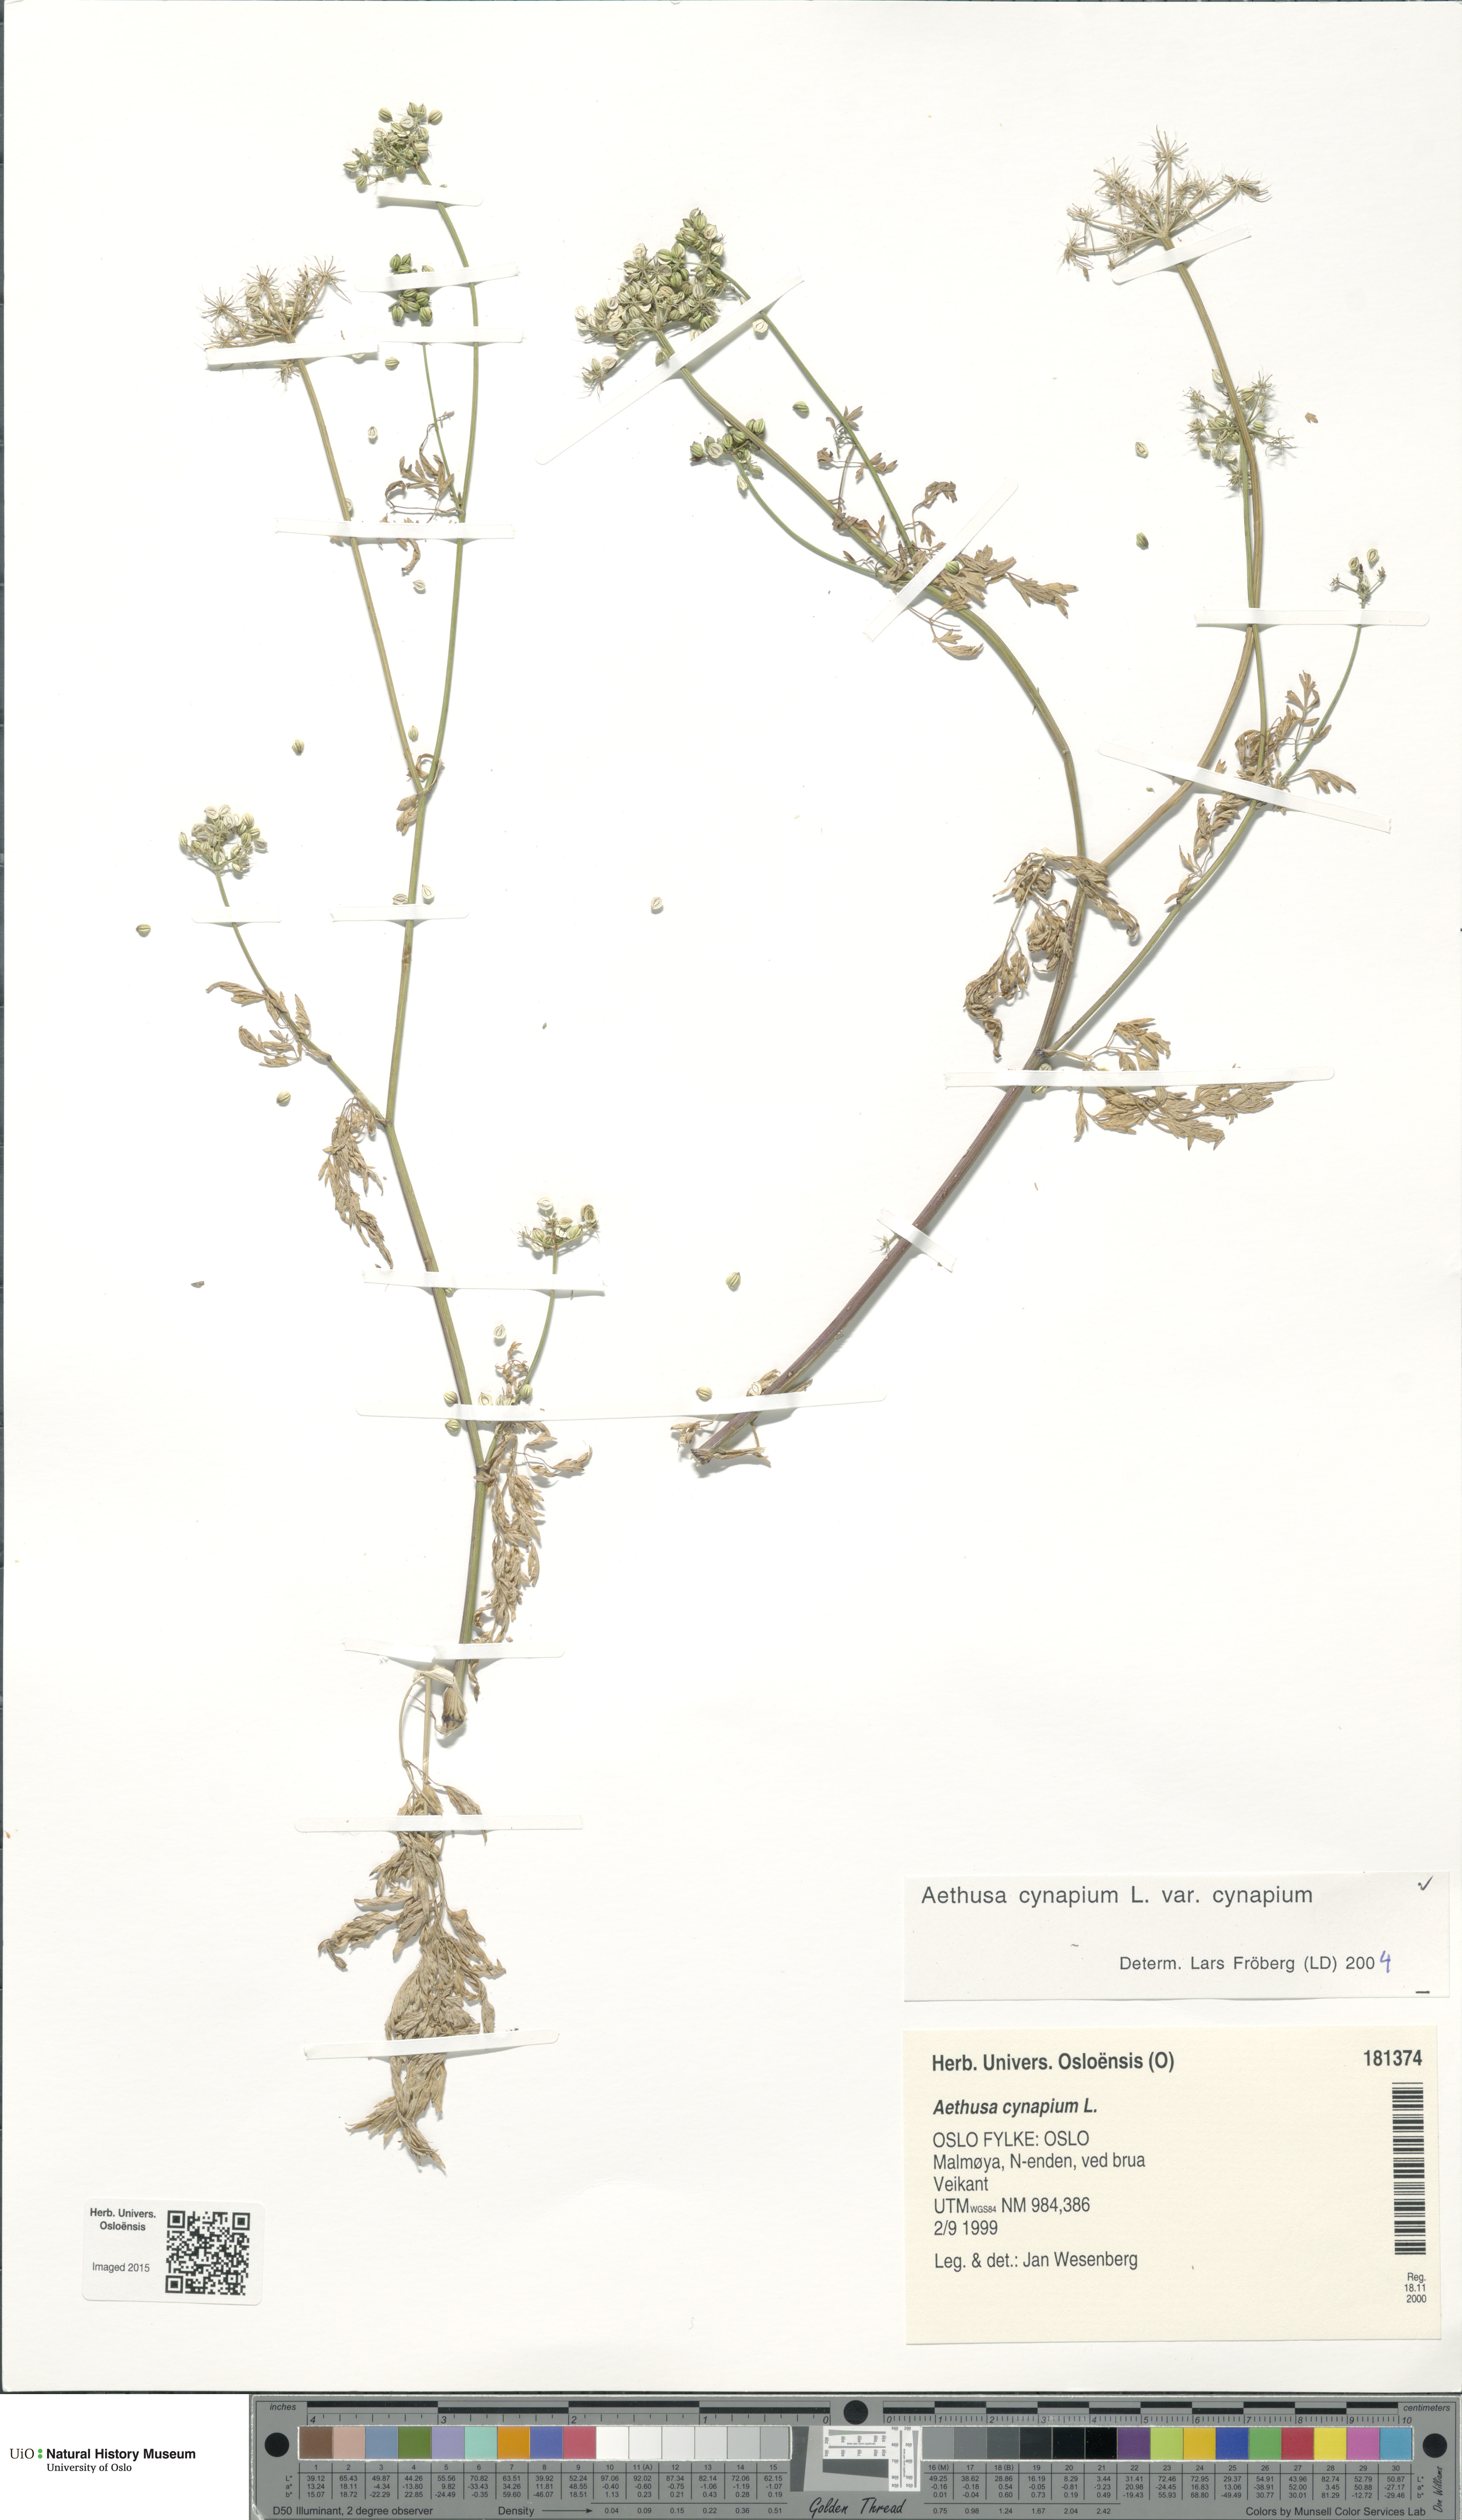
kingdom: Plantae
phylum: Tracheophyta
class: Magnoliopsida
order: Apiales
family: Apiaceae
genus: Aethusa
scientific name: Aethusa cynapium
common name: Fool's parsley
